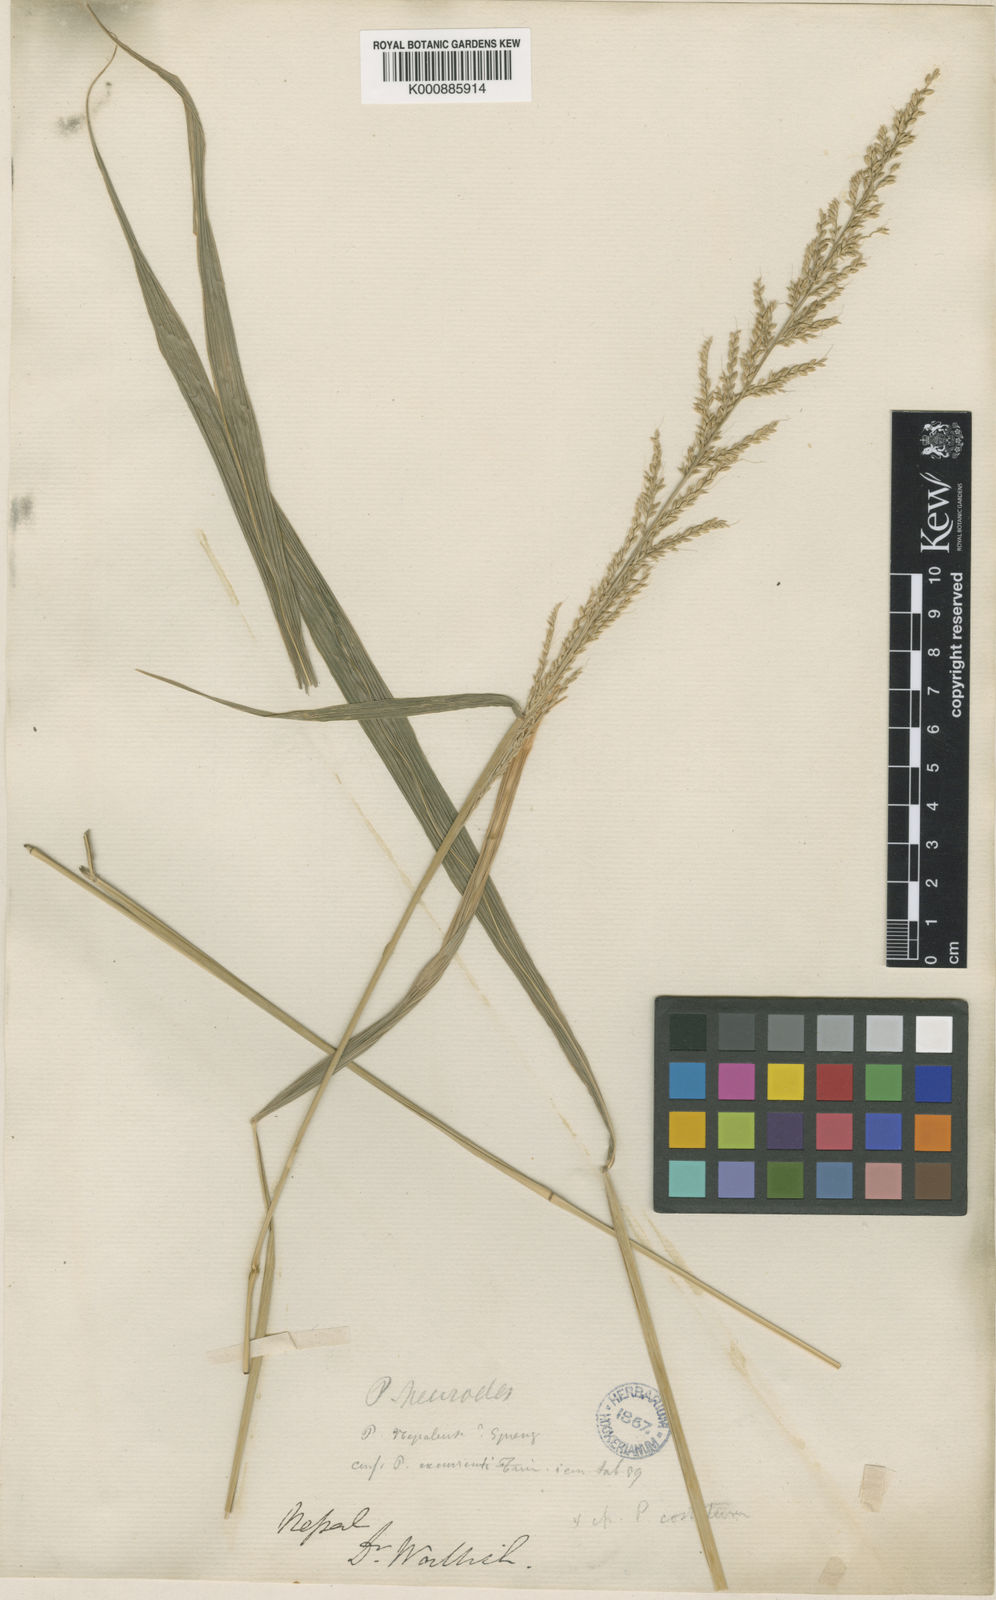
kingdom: Plantae
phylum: Tracheophyta
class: Liliopsida
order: Poales
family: Poaceae
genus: Setaria
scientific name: Setaria plicata
